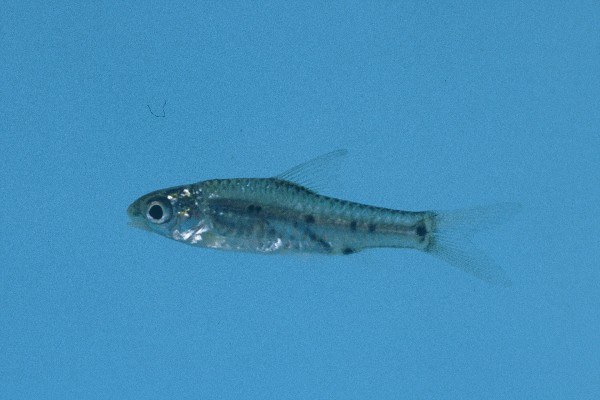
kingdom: Animalia
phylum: Chordata
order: Cypriniformes
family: Cyprinidae
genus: Enteromius
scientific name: Enteromius lineomaculatus
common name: Line-spotted barb
